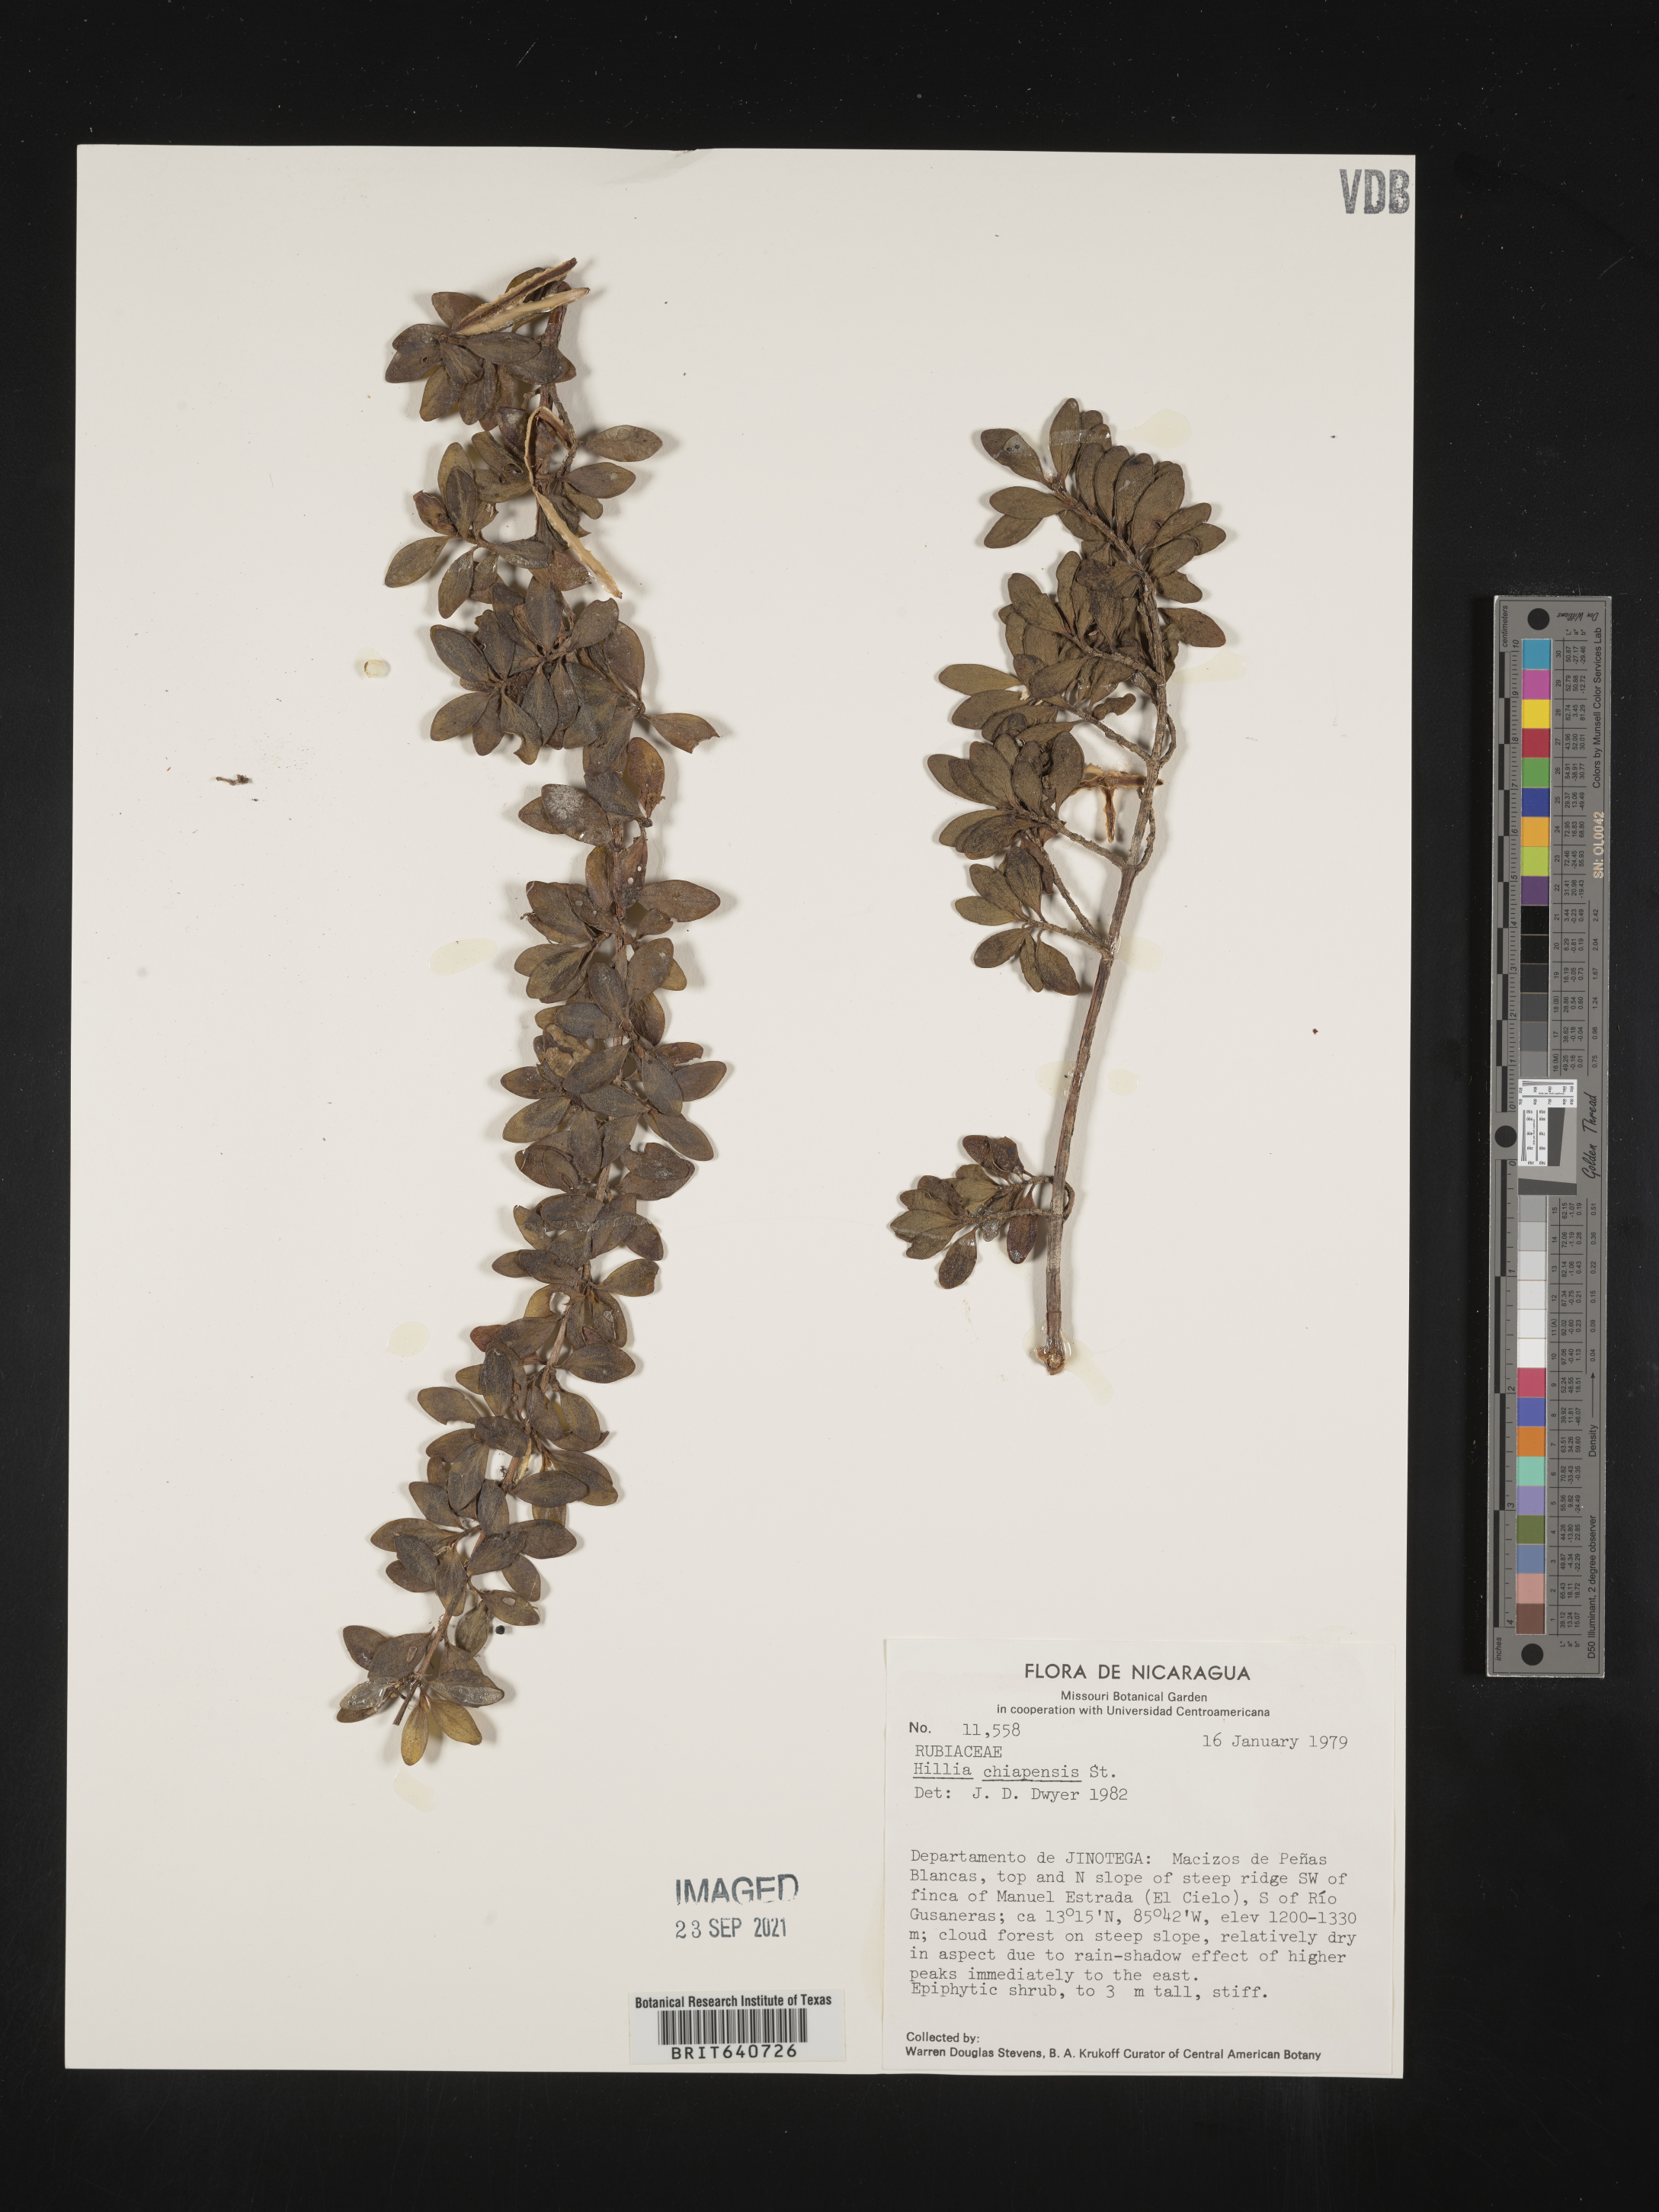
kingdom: Plantae
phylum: Tracheophyta
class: Magnoliopsida
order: Gentianales
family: Rubiaceae
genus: Hillia
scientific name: Hillia
